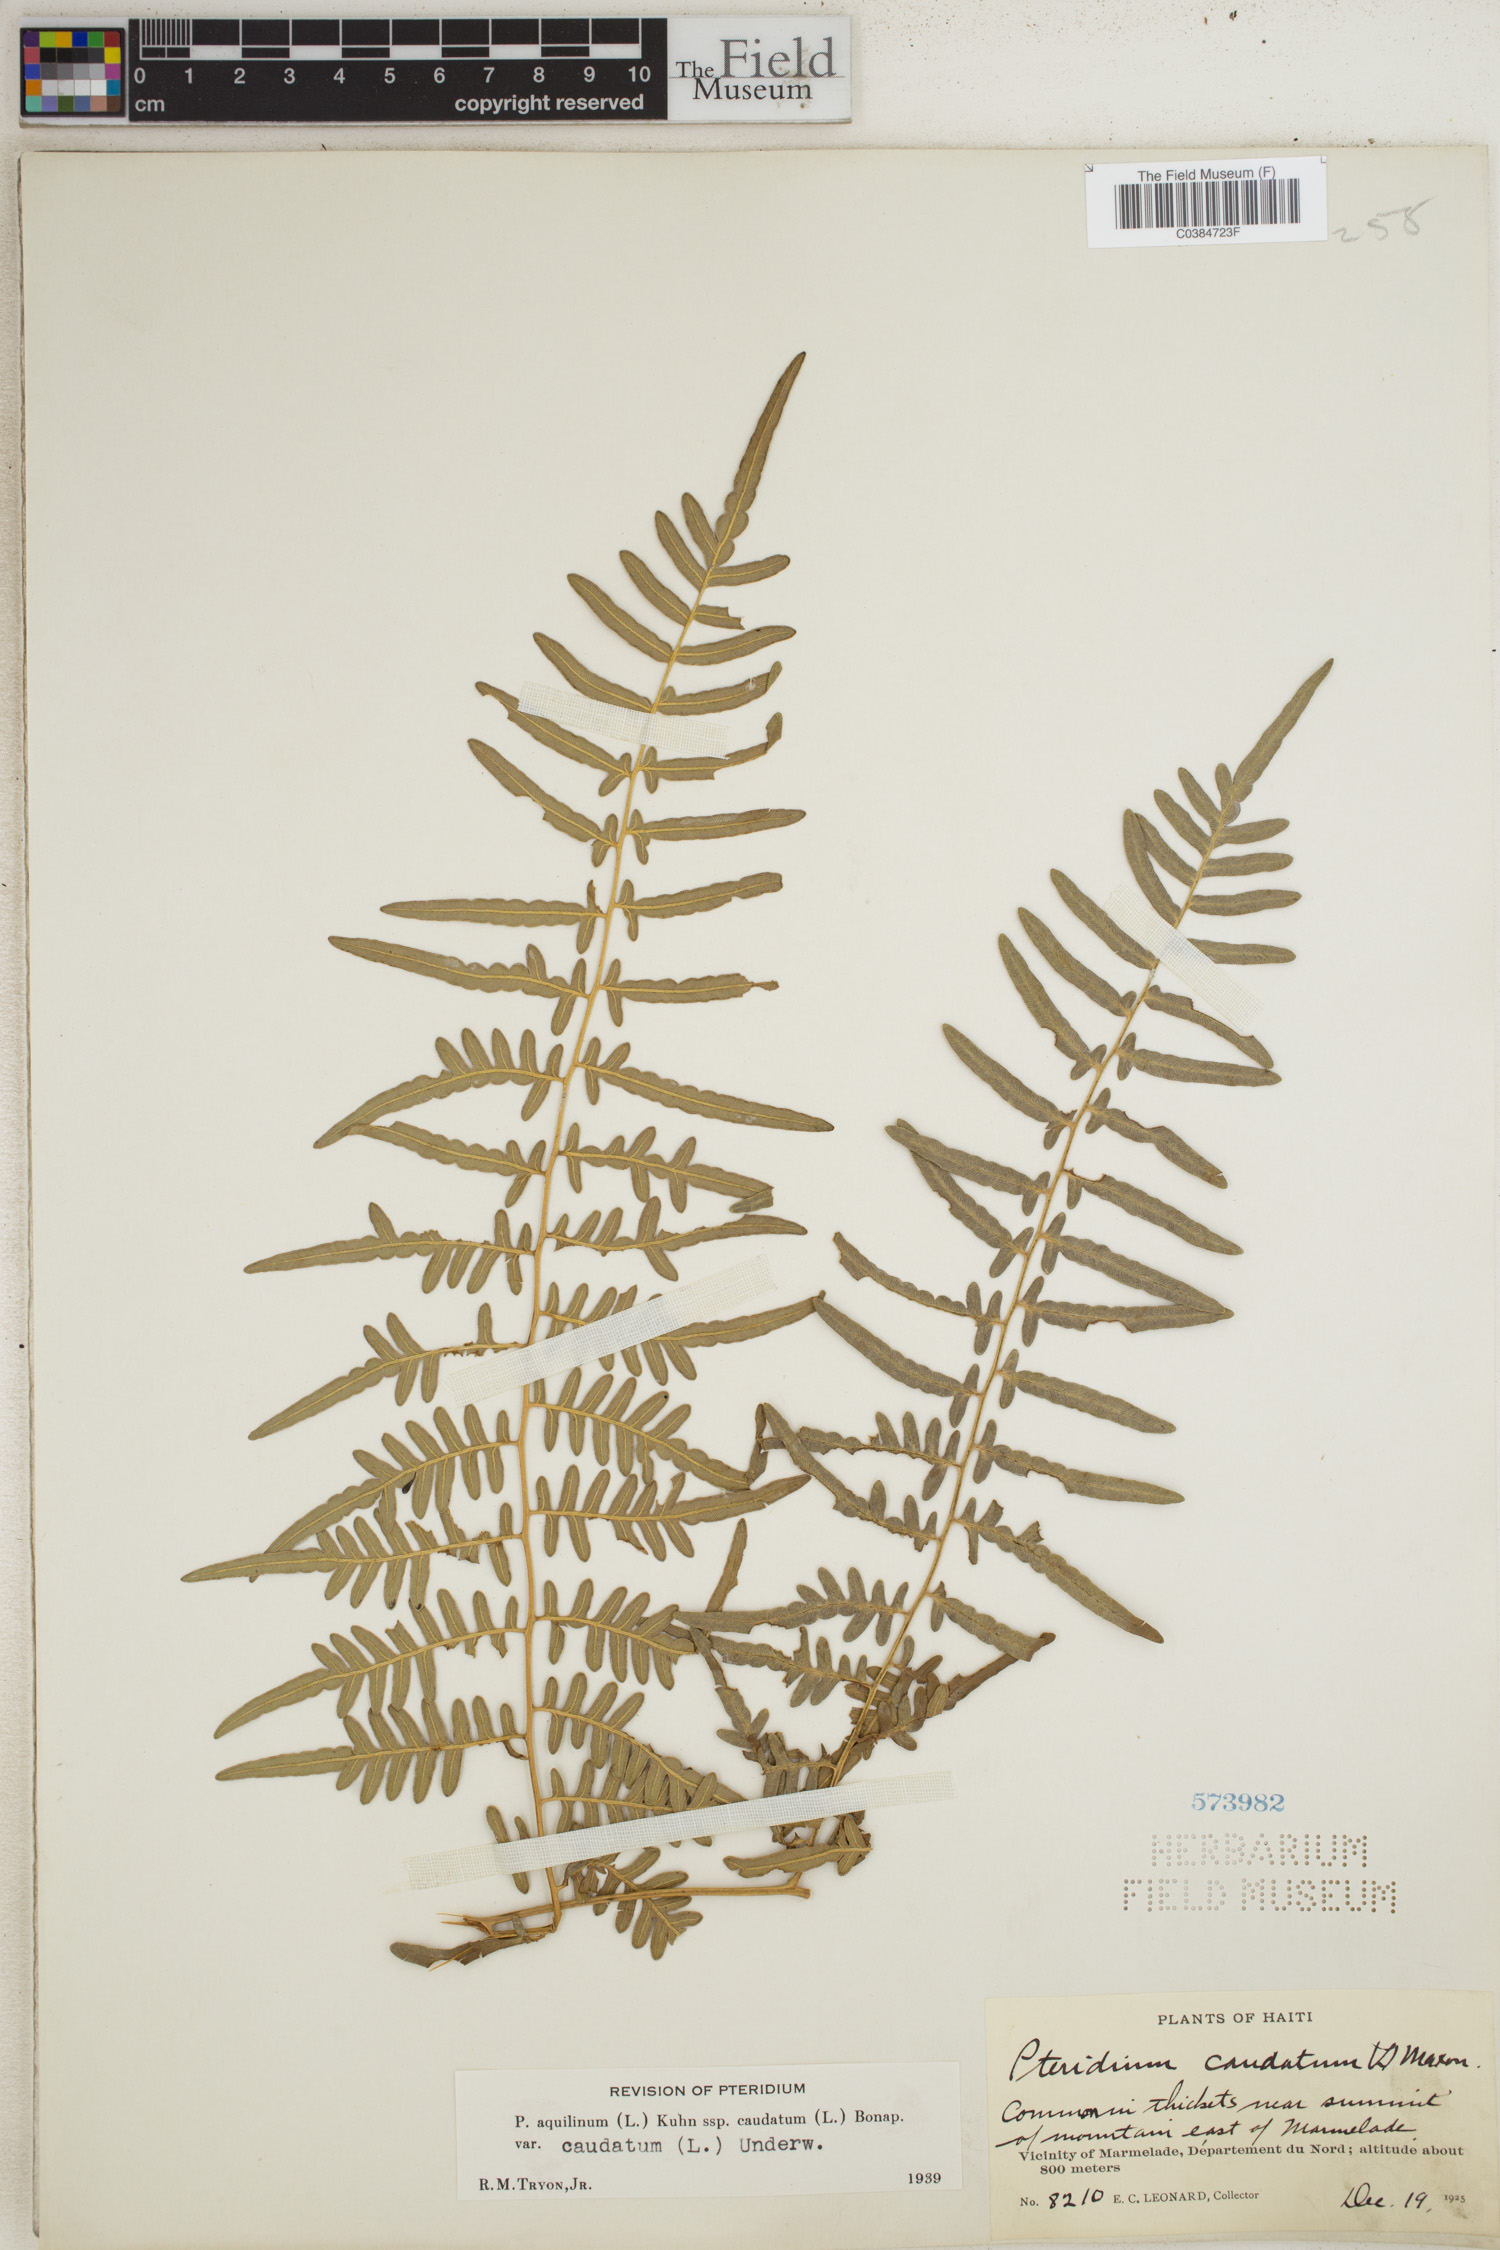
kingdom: Plantae
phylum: Tracheophyta
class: Polypodiopsida
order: Polypodiales
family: Dennstaedtiaceae
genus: Pteridium
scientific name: Pteridium caudatum
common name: Southern bracken fern
